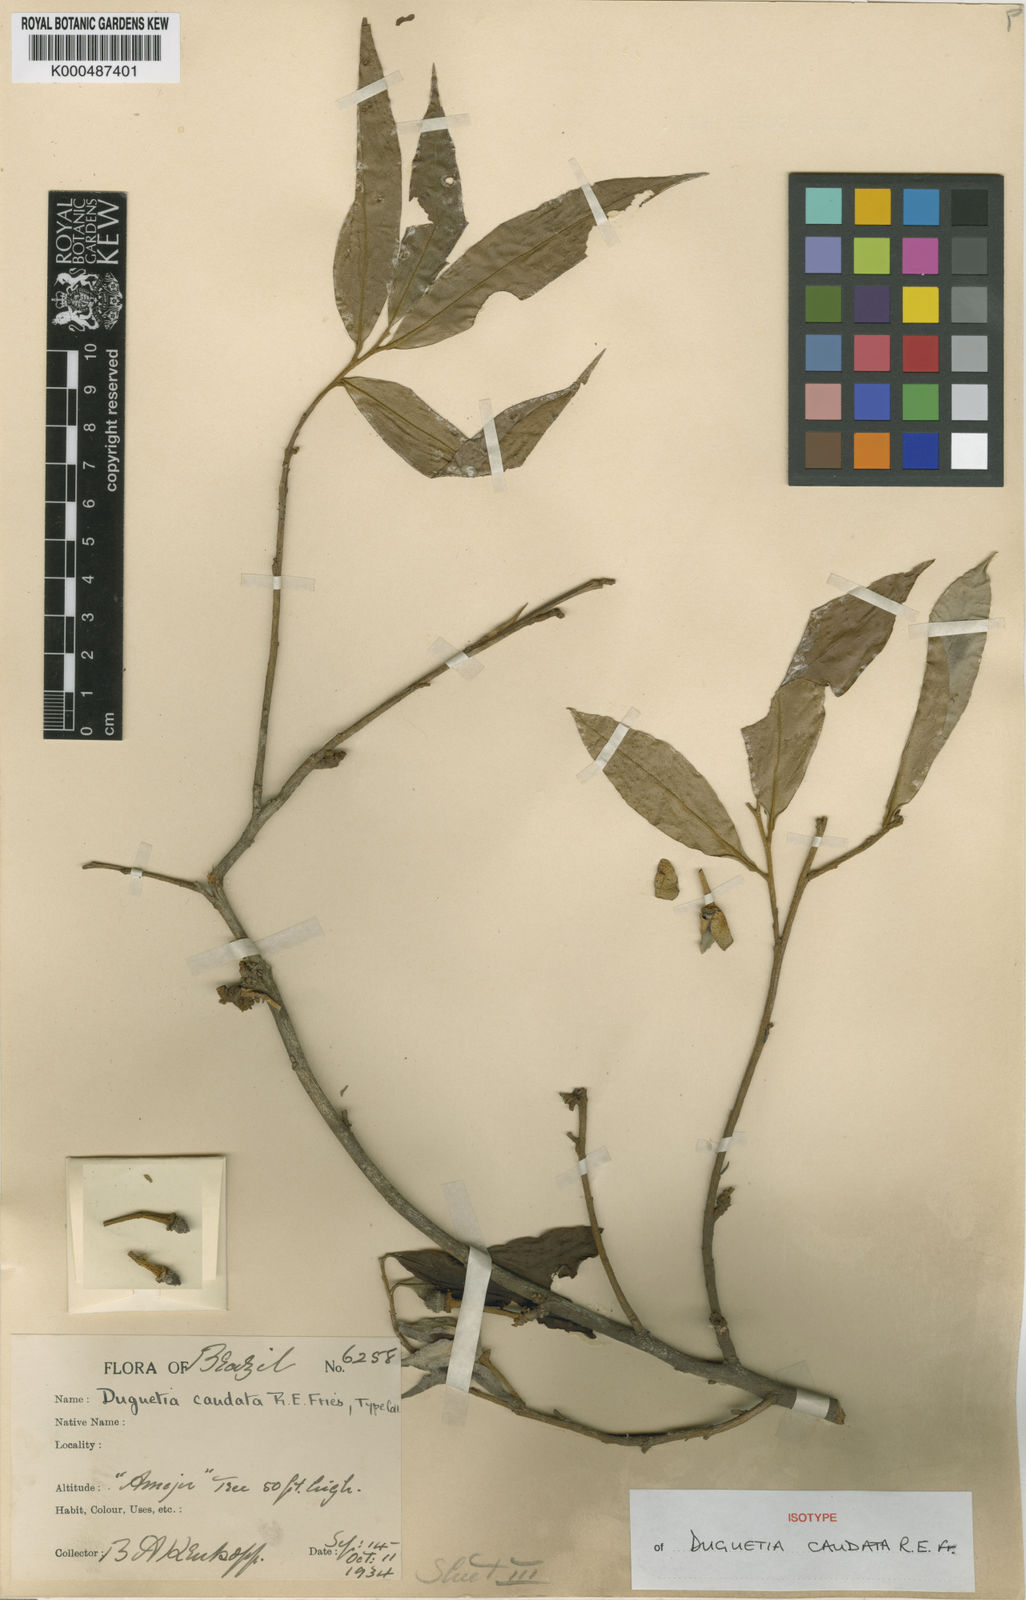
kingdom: Plantae
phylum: Tracheophyta
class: Magnoliopsida
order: Magnoliales
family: Annonaceae
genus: Duguetia
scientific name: Duguetia surinamensis
